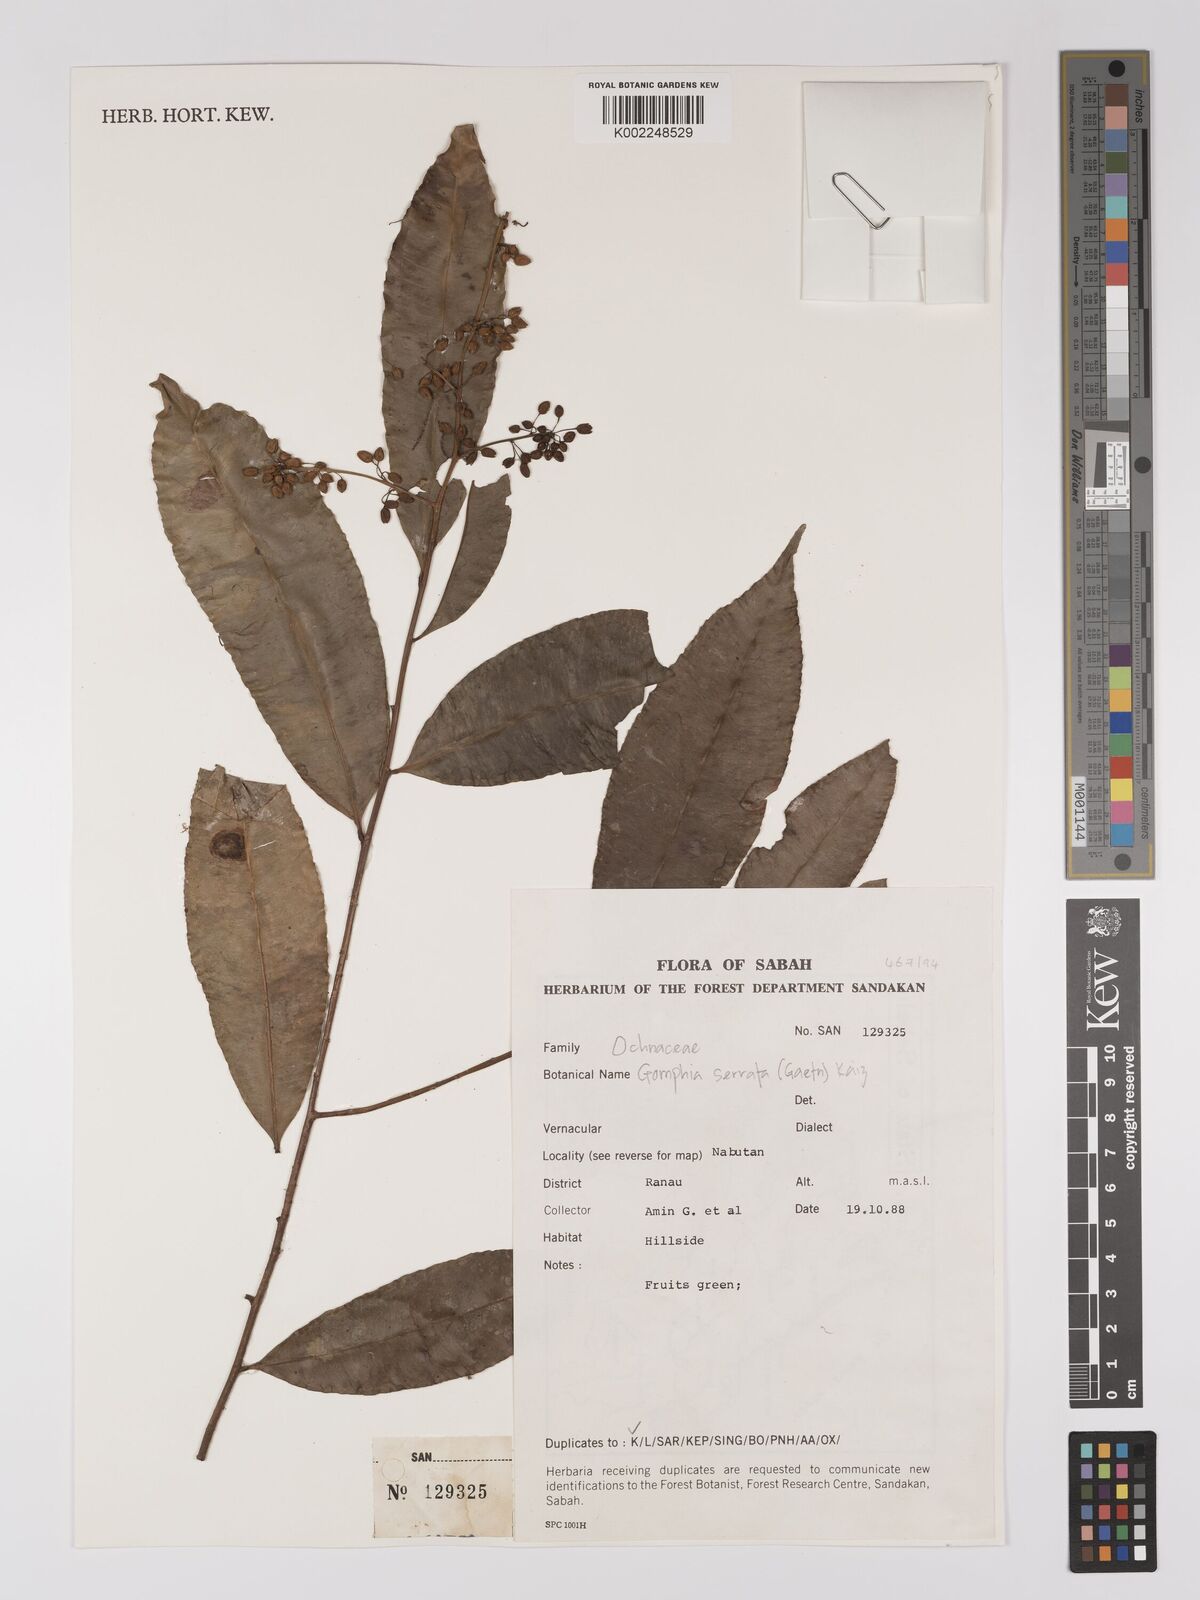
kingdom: Plantae
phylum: Tracheophyta
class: Magnoliopsida
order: Malpighiales
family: Ochnaceae
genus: Gomphia
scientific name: Gomphia serrata
